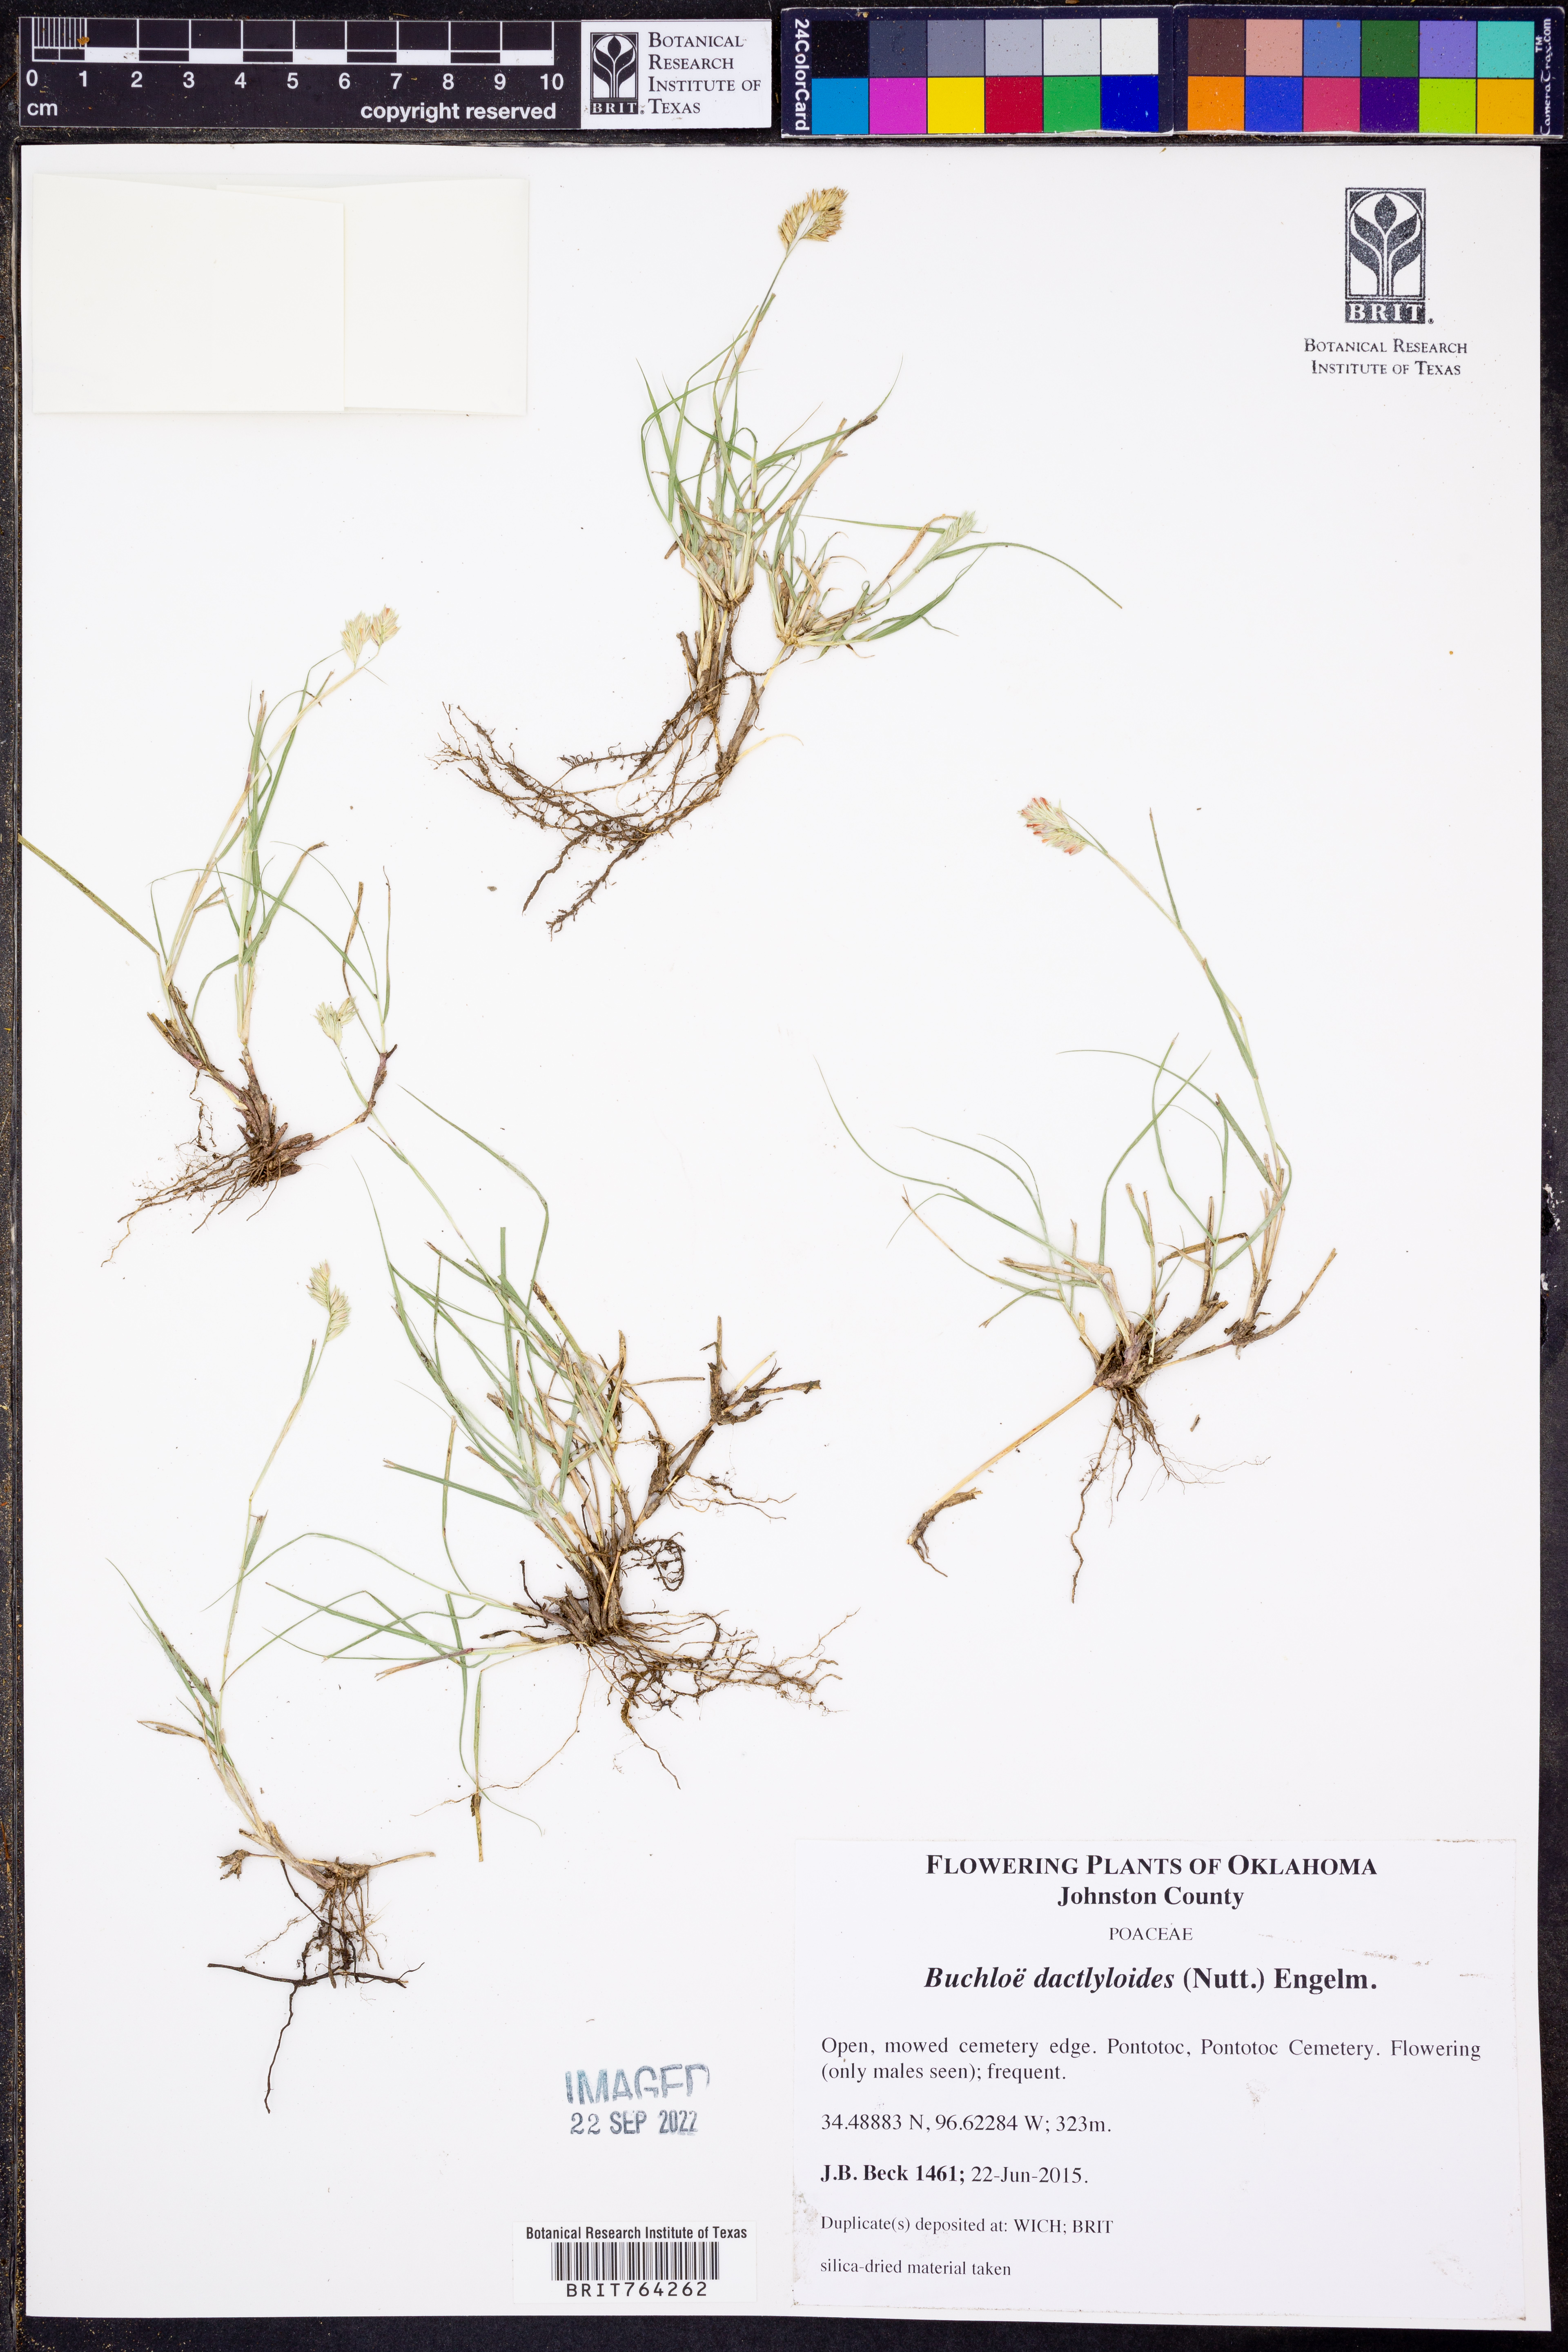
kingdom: Plantae
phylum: Tracheophyta
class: Liliopsida
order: Poales
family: Poaceae
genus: Bouteloua
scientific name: Bouteloua dactyloides
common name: Buffalo grass
